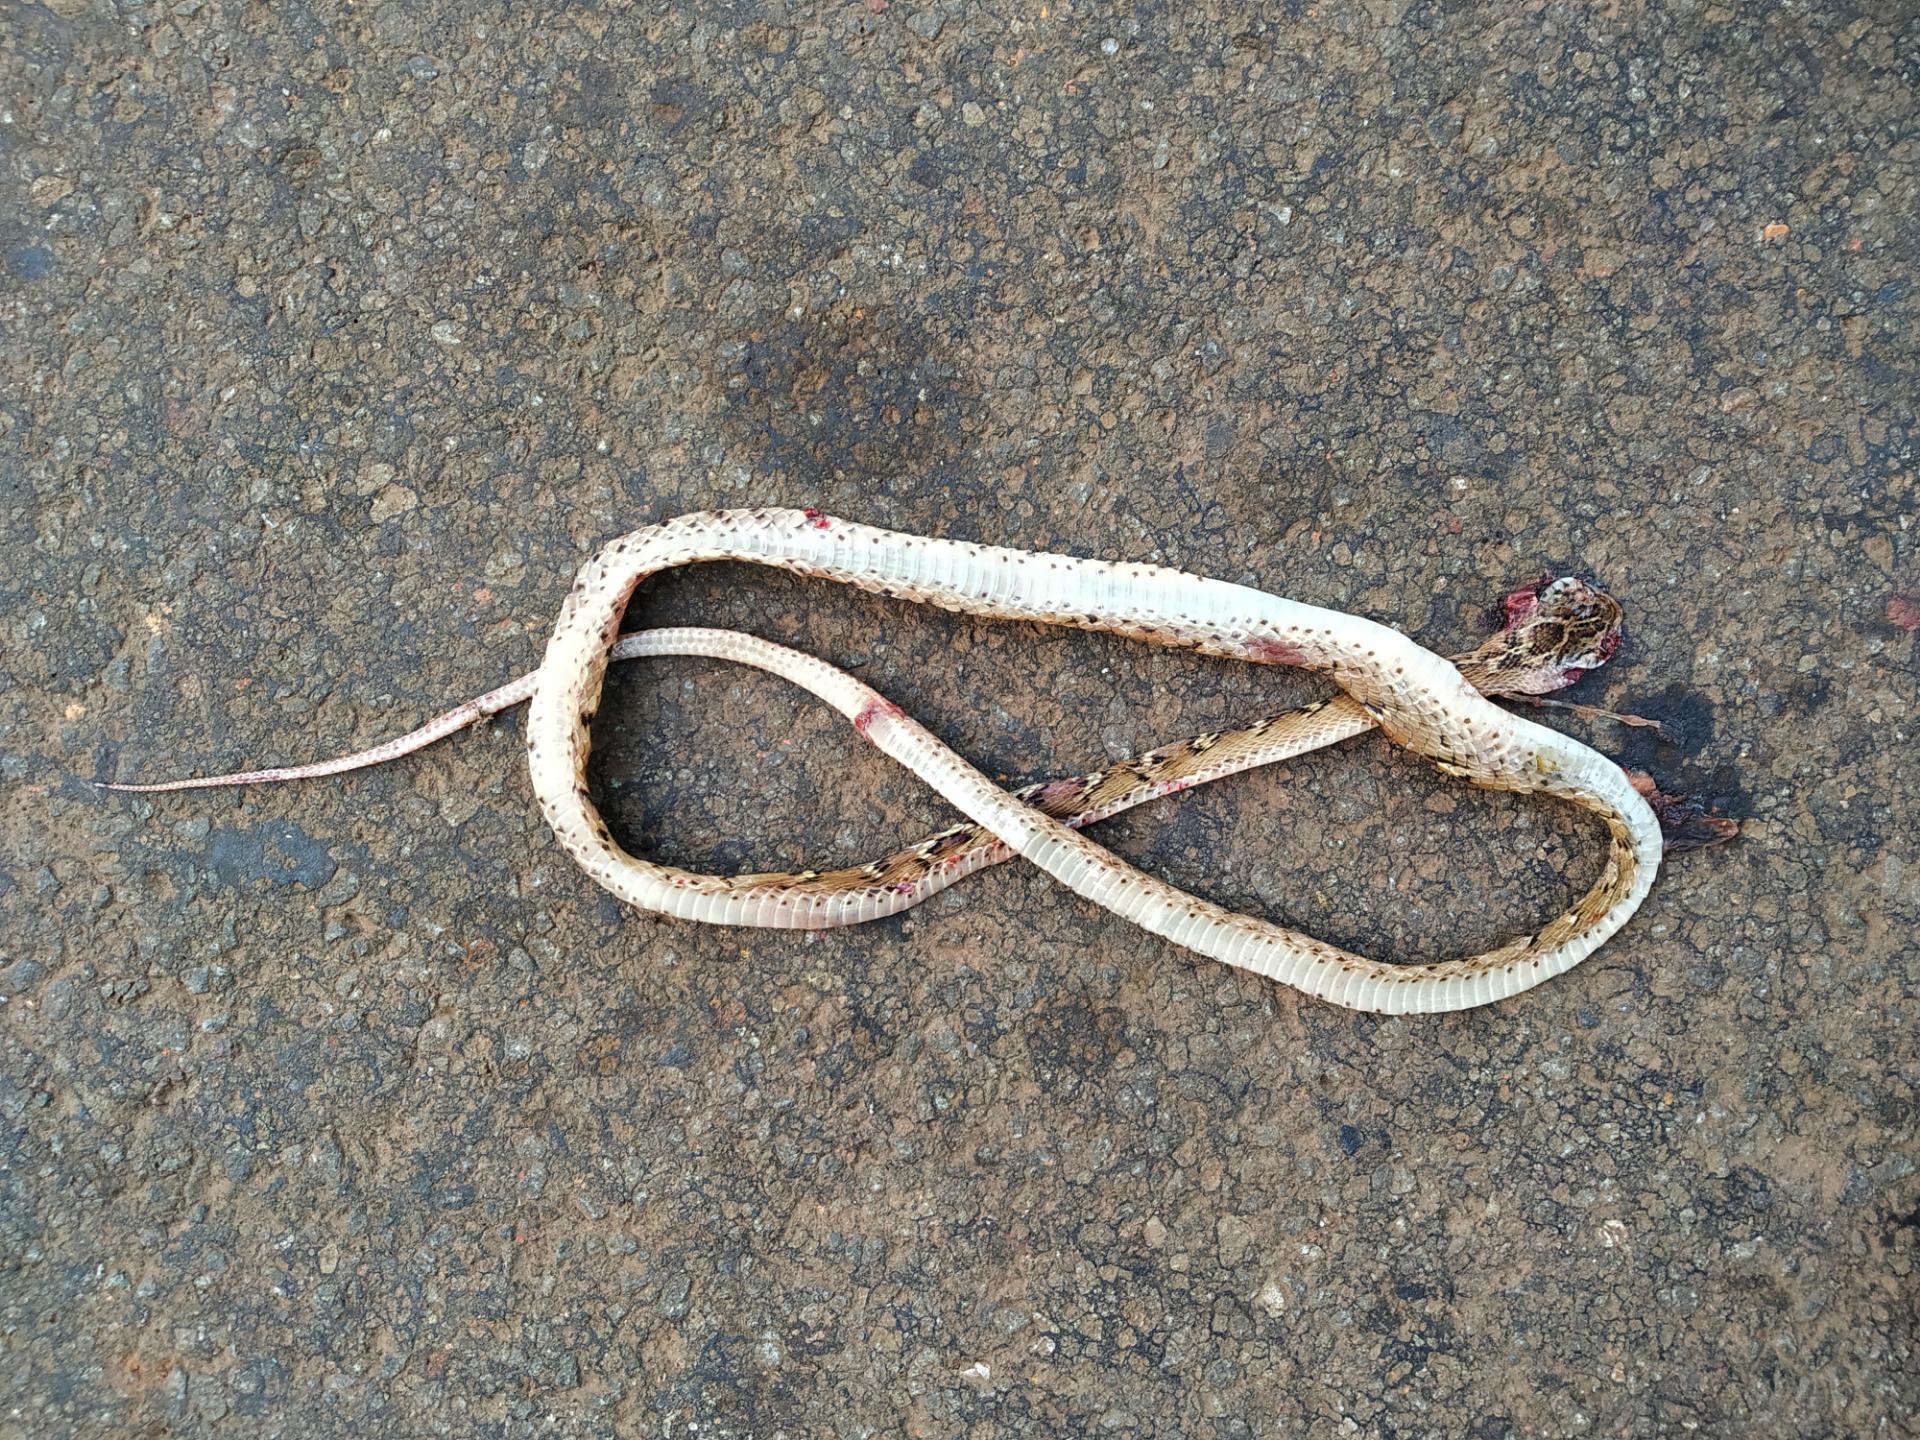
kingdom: Animalia
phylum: Chordata
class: Squamata
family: Colubridae
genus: Boiga
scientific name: Boiga
